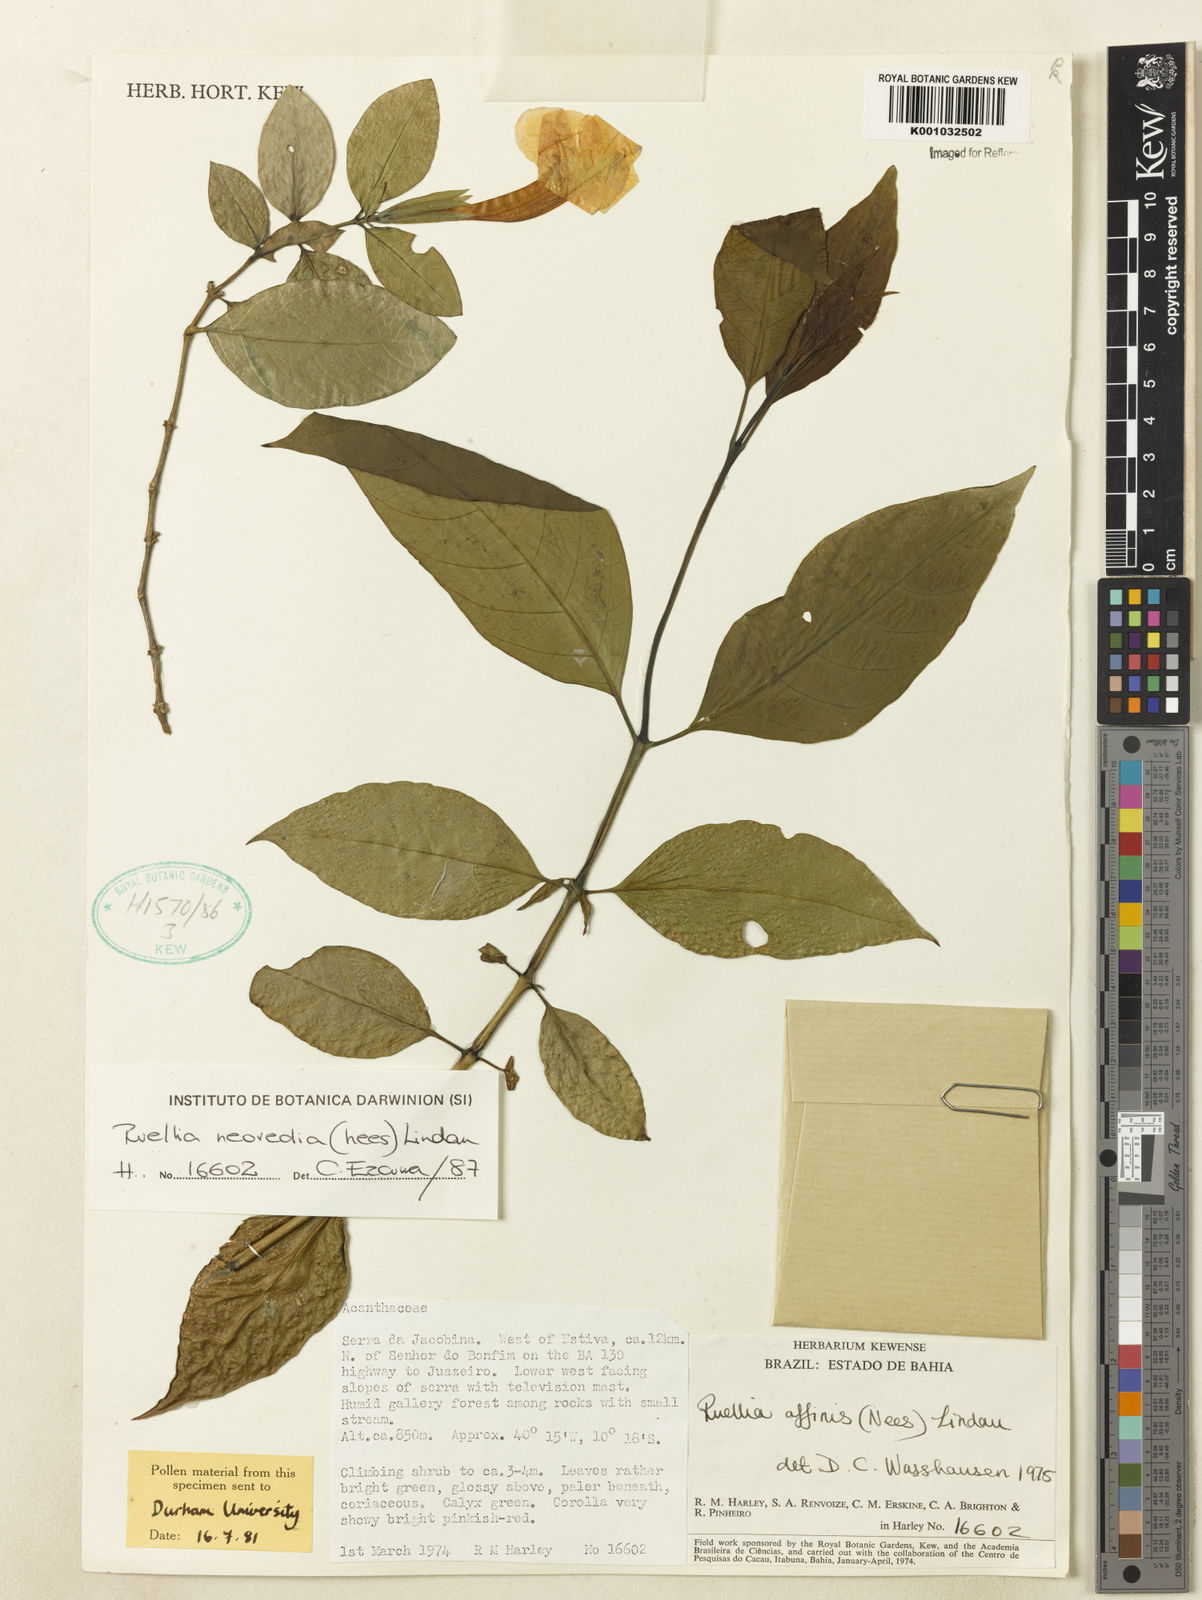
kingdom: Plantae
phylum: Tracheophyta
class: Magnoliopsida
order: Lamiales
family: Acanthaceae
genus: Ruellia
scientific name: Ruellia
